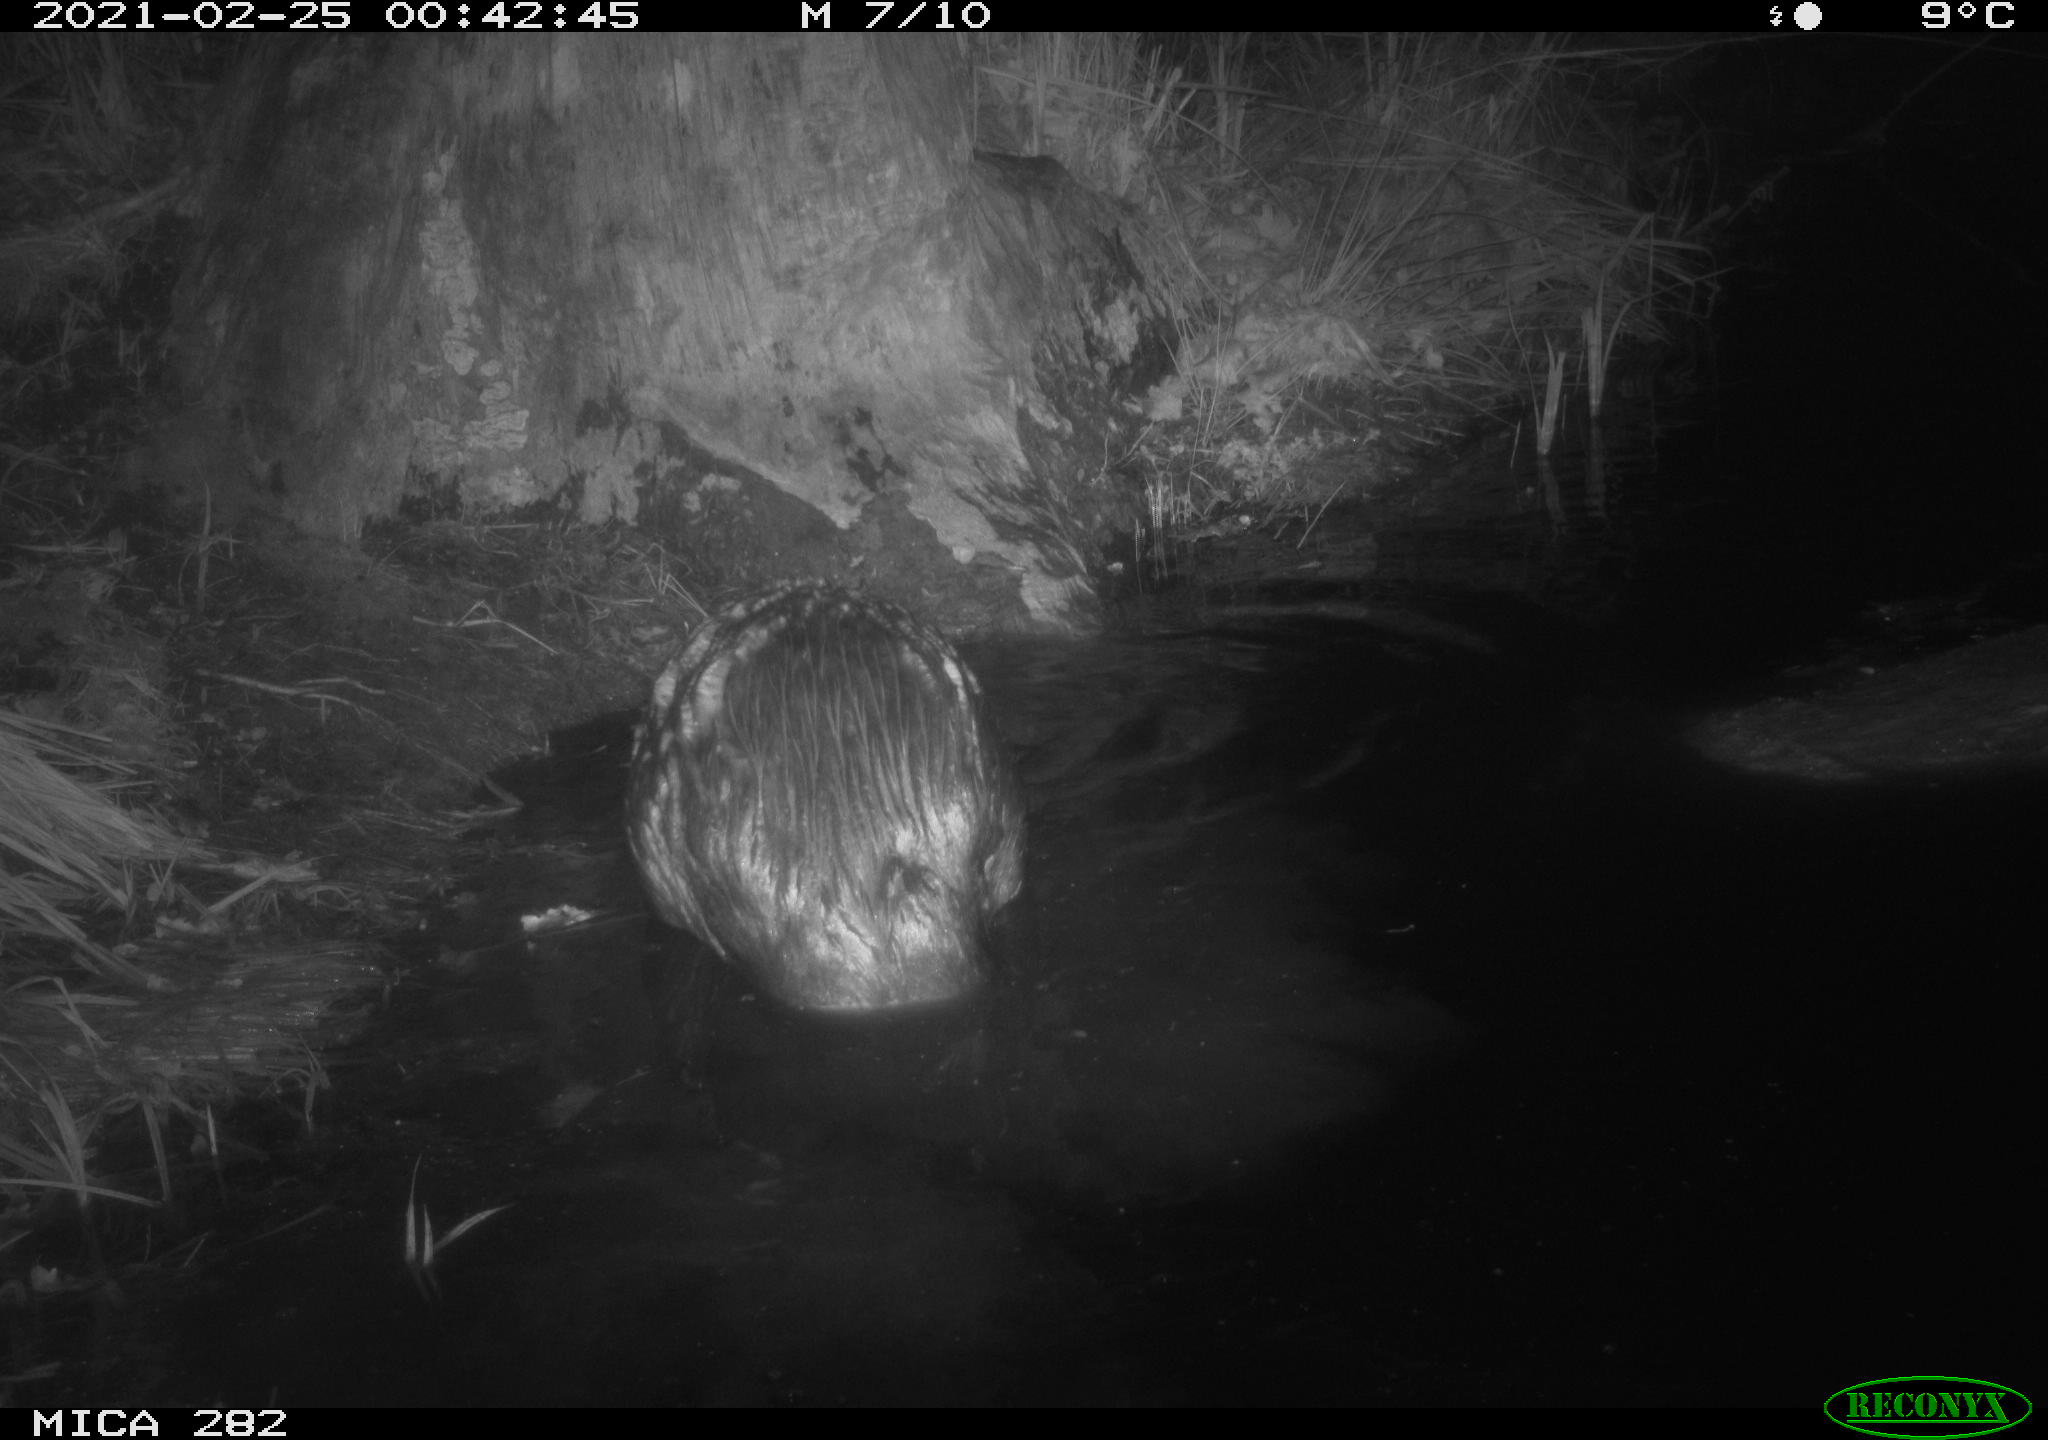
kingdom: Animalia
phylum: Chordata
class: Mammalia
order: Rodentia
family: Castoridae
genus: Castor
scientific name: Castor fiber
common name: Eurasian beaver
